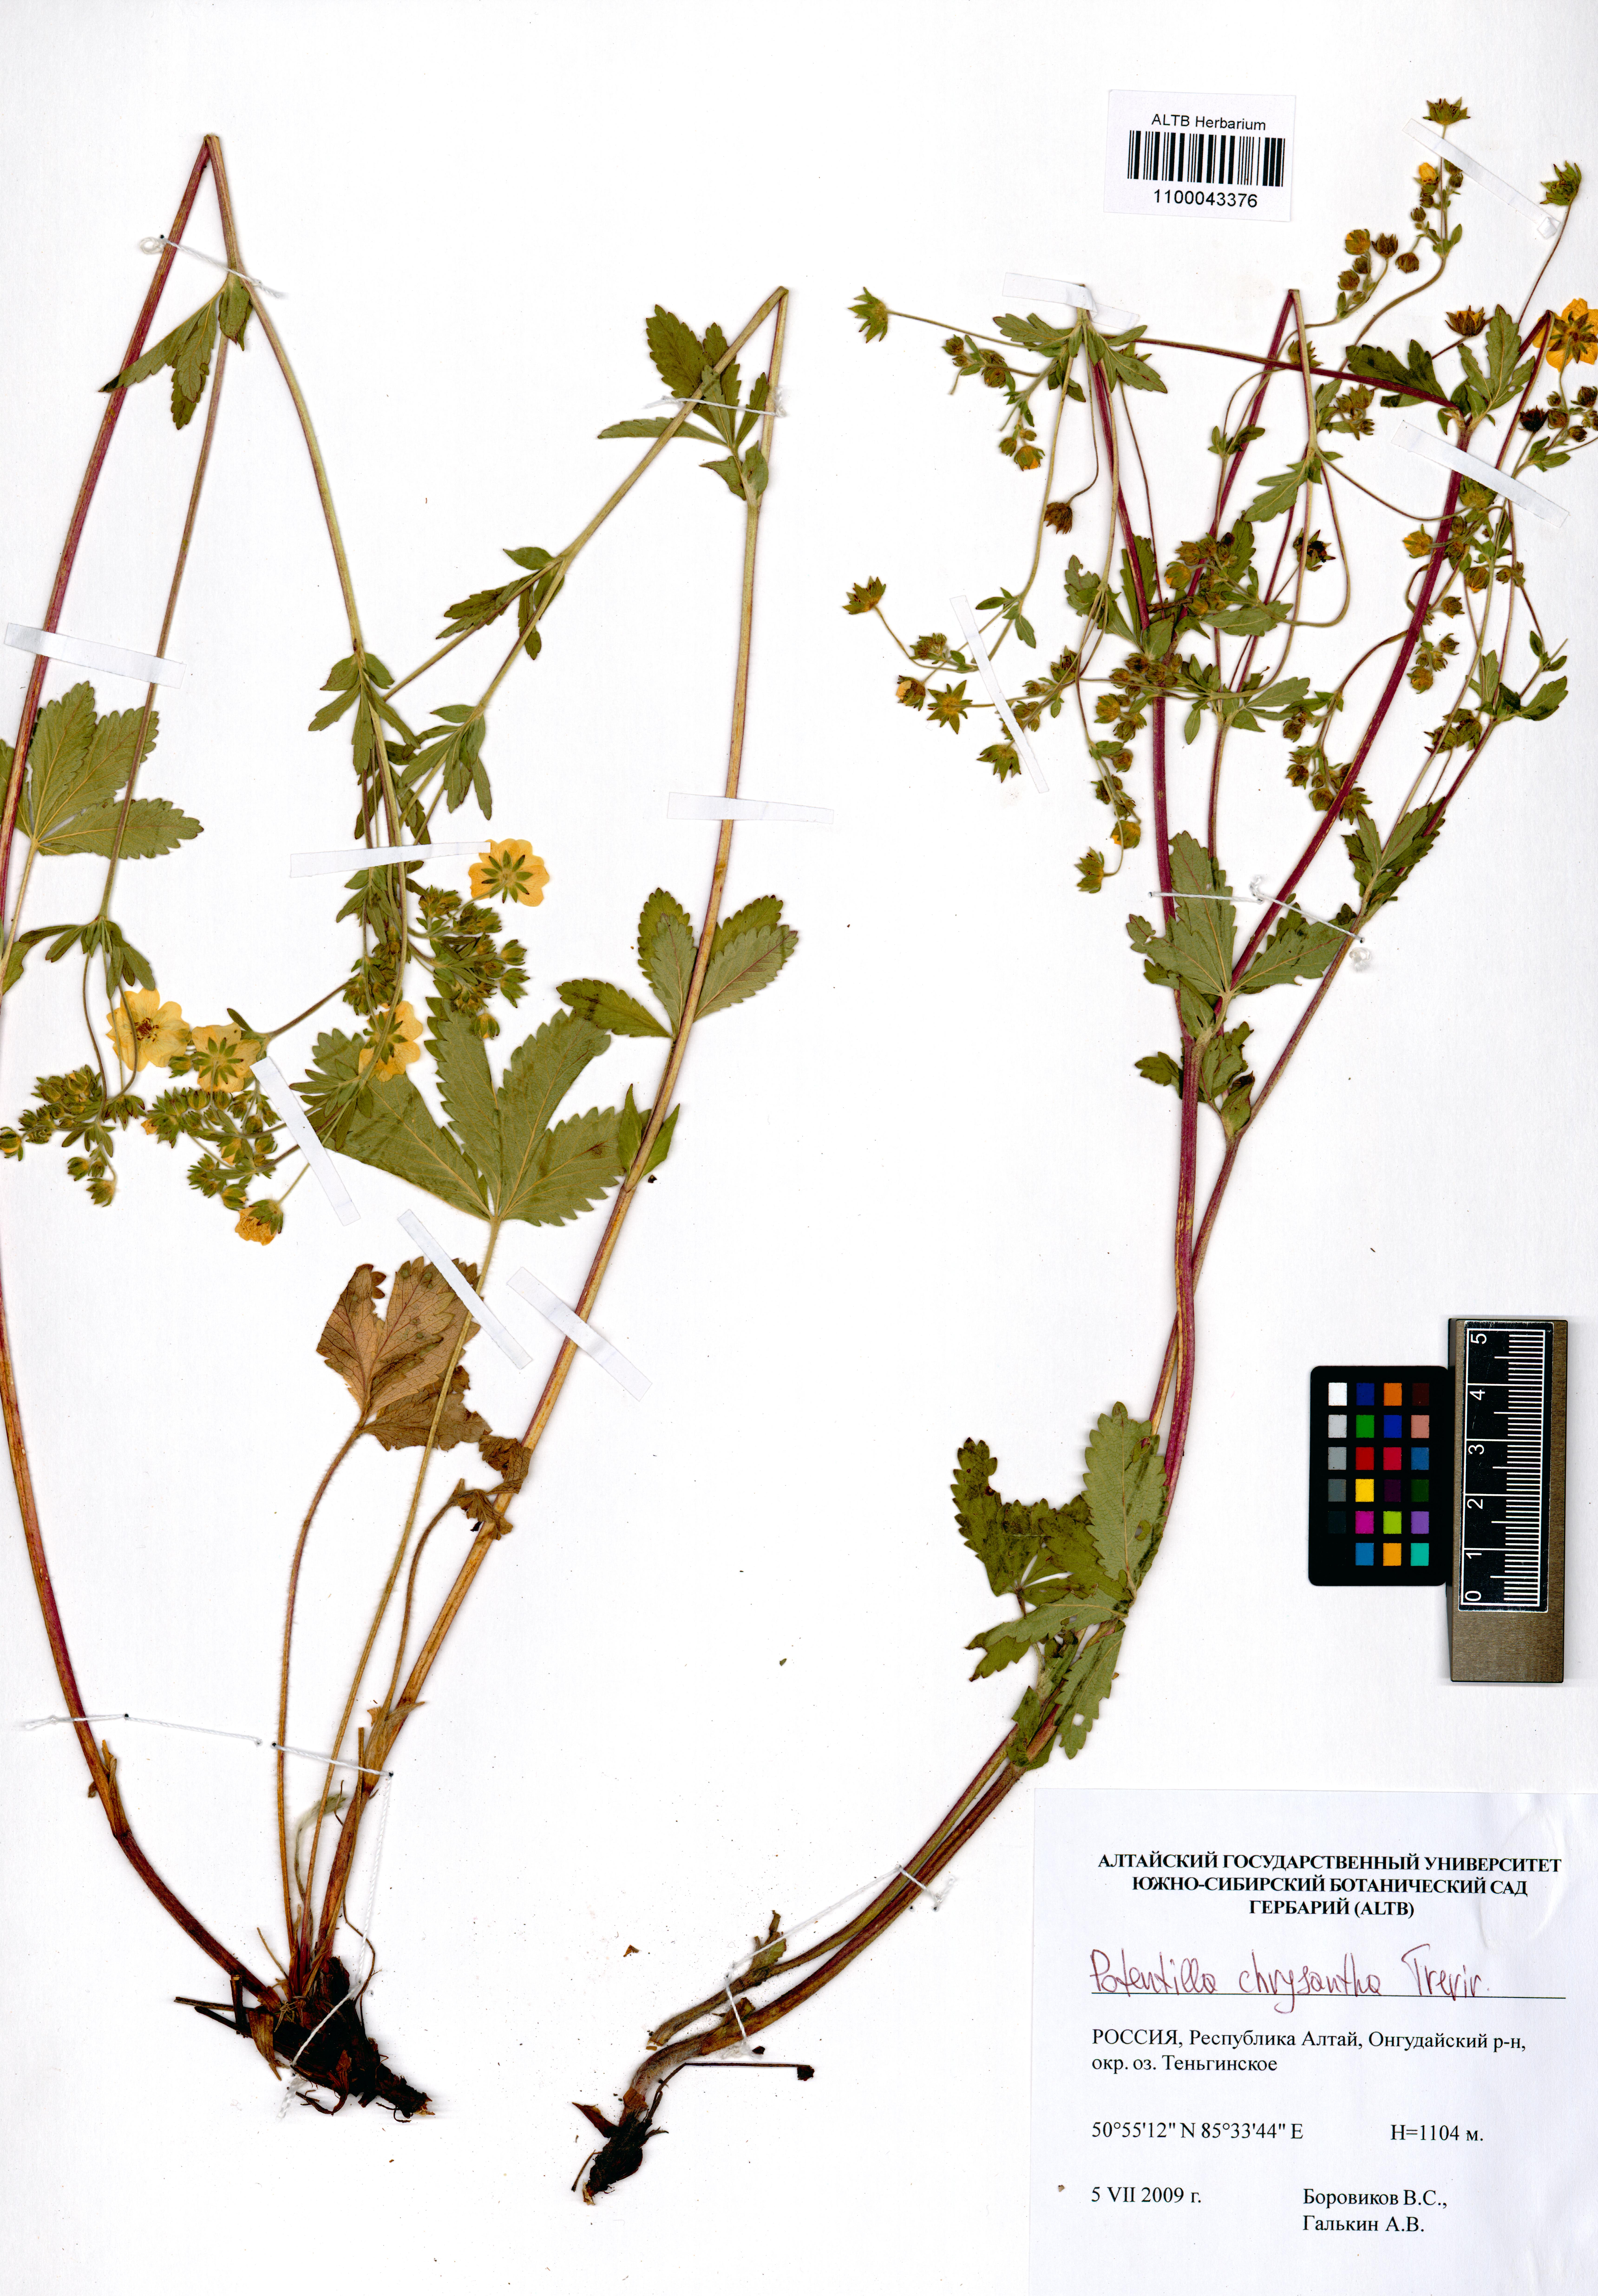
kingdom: Plantae
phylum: Tracheophyta
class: Magnoliopsida
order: Rosales
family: Rosaceae
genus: Potentilla
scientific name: Potentilla chrysantha
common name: Thuringian cinquefoil
